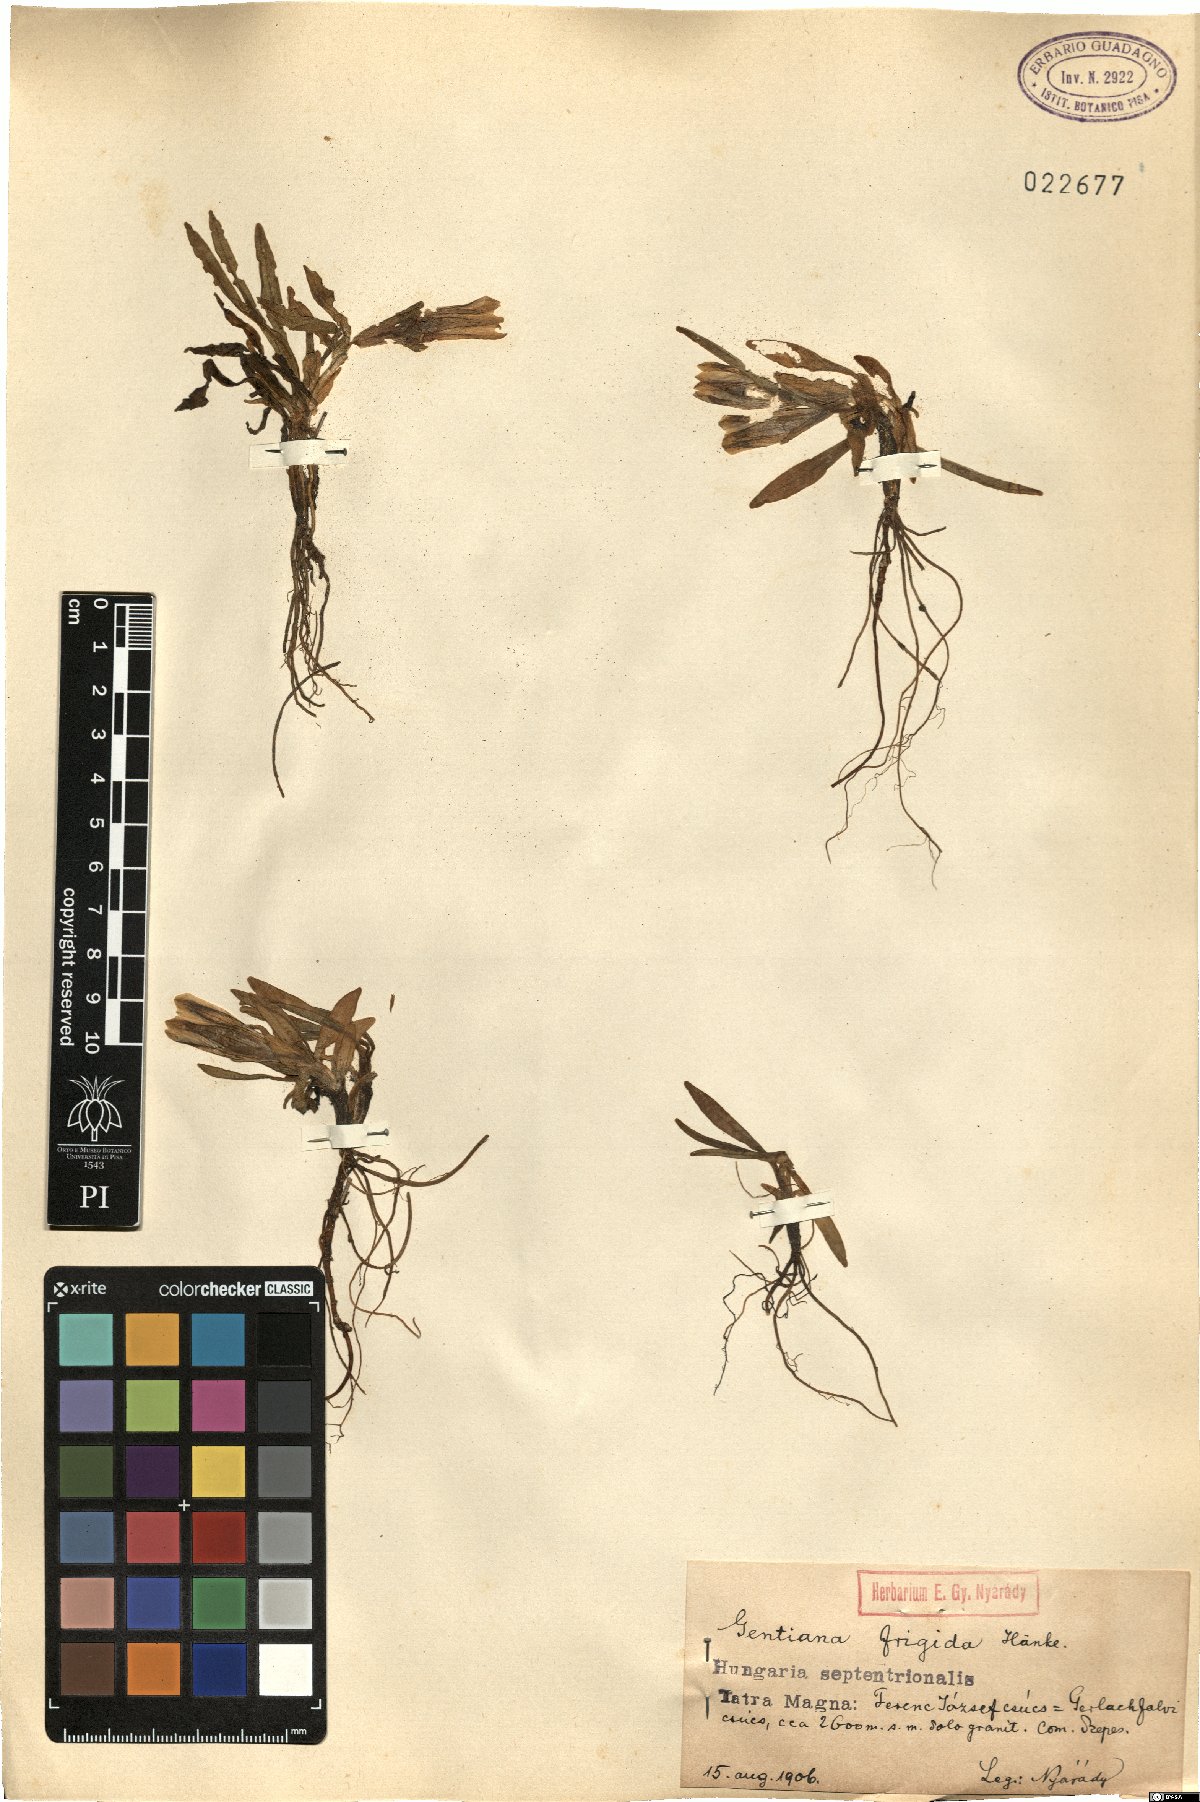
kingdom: Plantae
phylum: Tracheophyta
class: Magnoliopsida
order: Gentianales
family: Gentianaceae
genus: Gentiana
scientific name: Gentiana frigida
